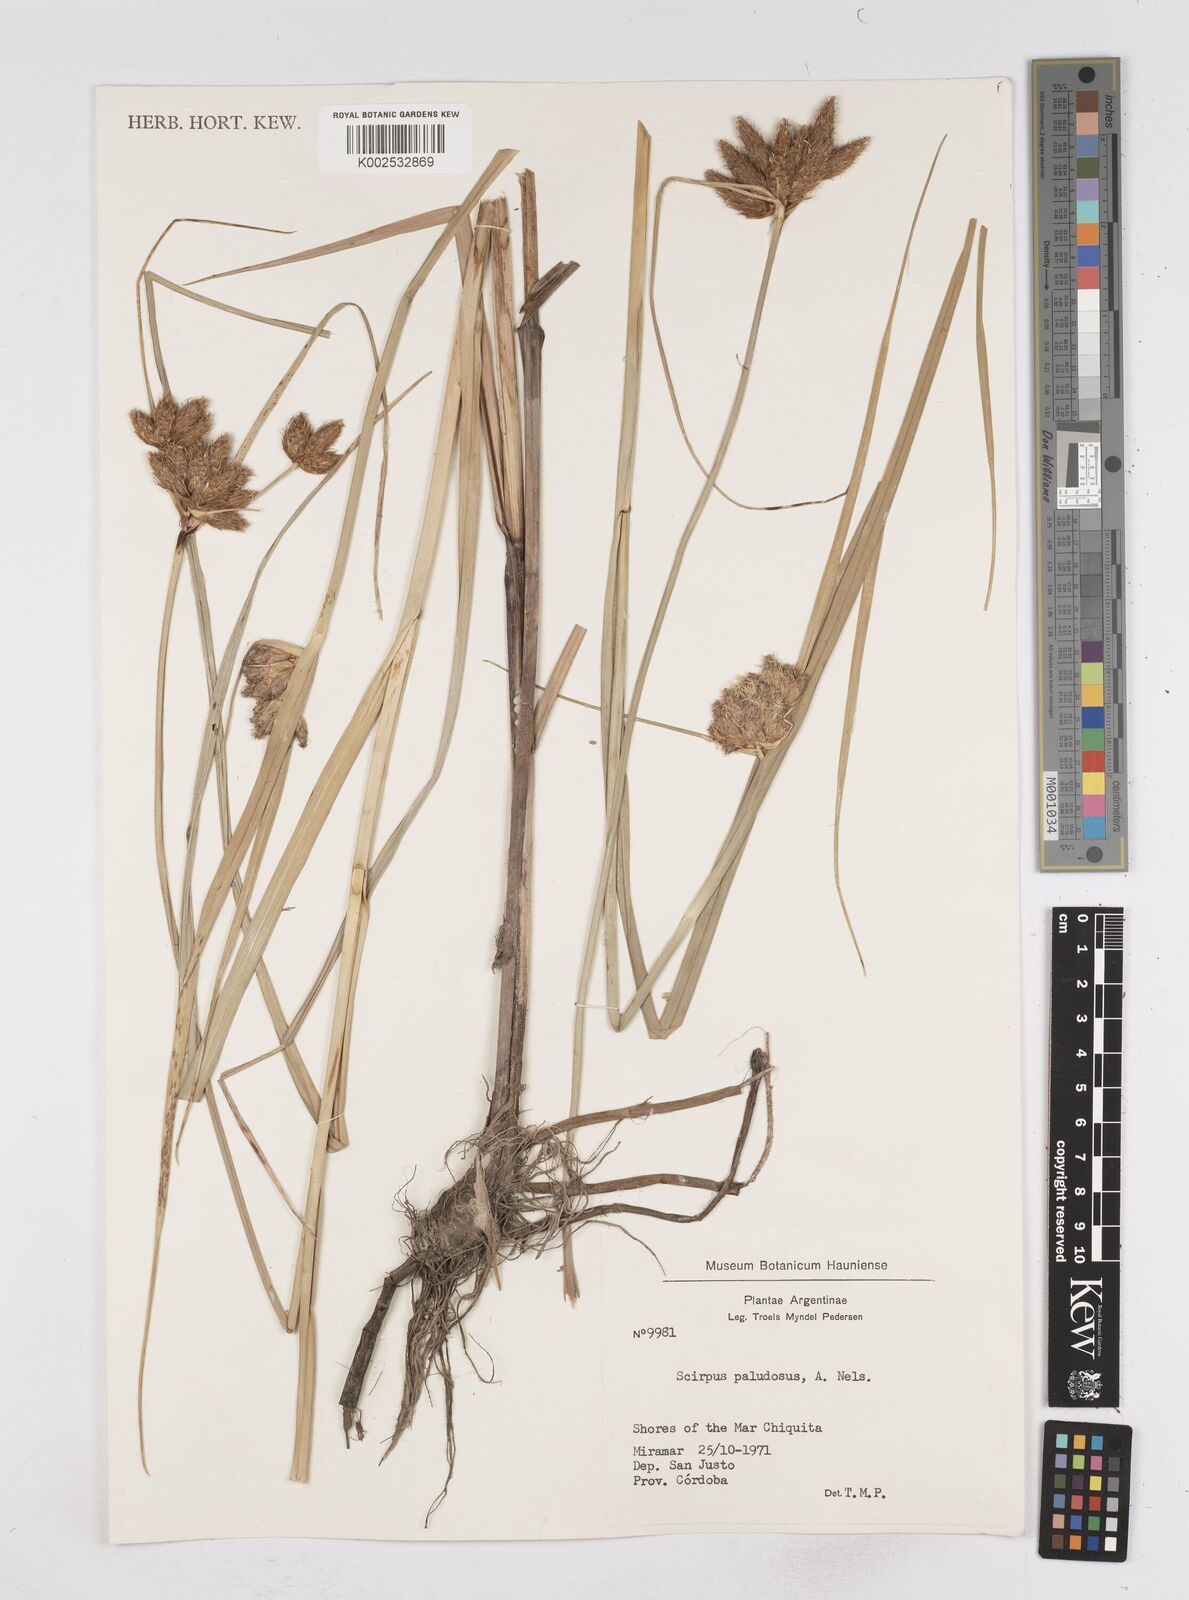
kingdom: Plantae
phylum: Tracheophyta
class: Liliopsida
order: Poales
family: Cyperaceae
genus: Bolboschoenus
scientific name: Bolboschoenus maritimus
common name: Sea club-rush
